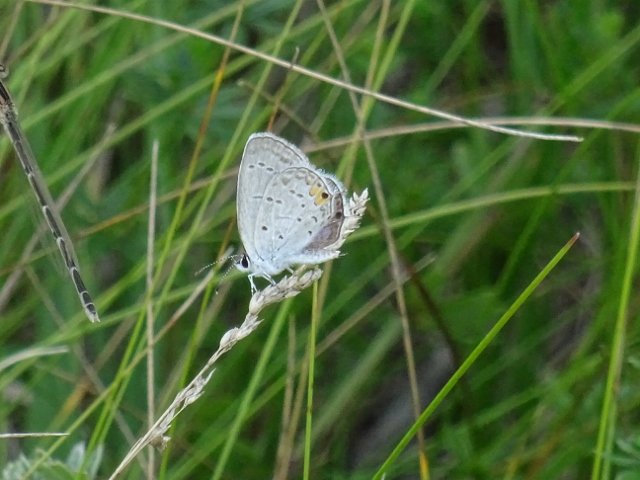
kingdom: Animalia
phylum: Arthropoda
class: Insecta
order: Lepidoptera
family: Lycaenidae
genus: Elkalyce
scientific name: Elkalyce comyntas
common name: Eastern Tailed-Blue
